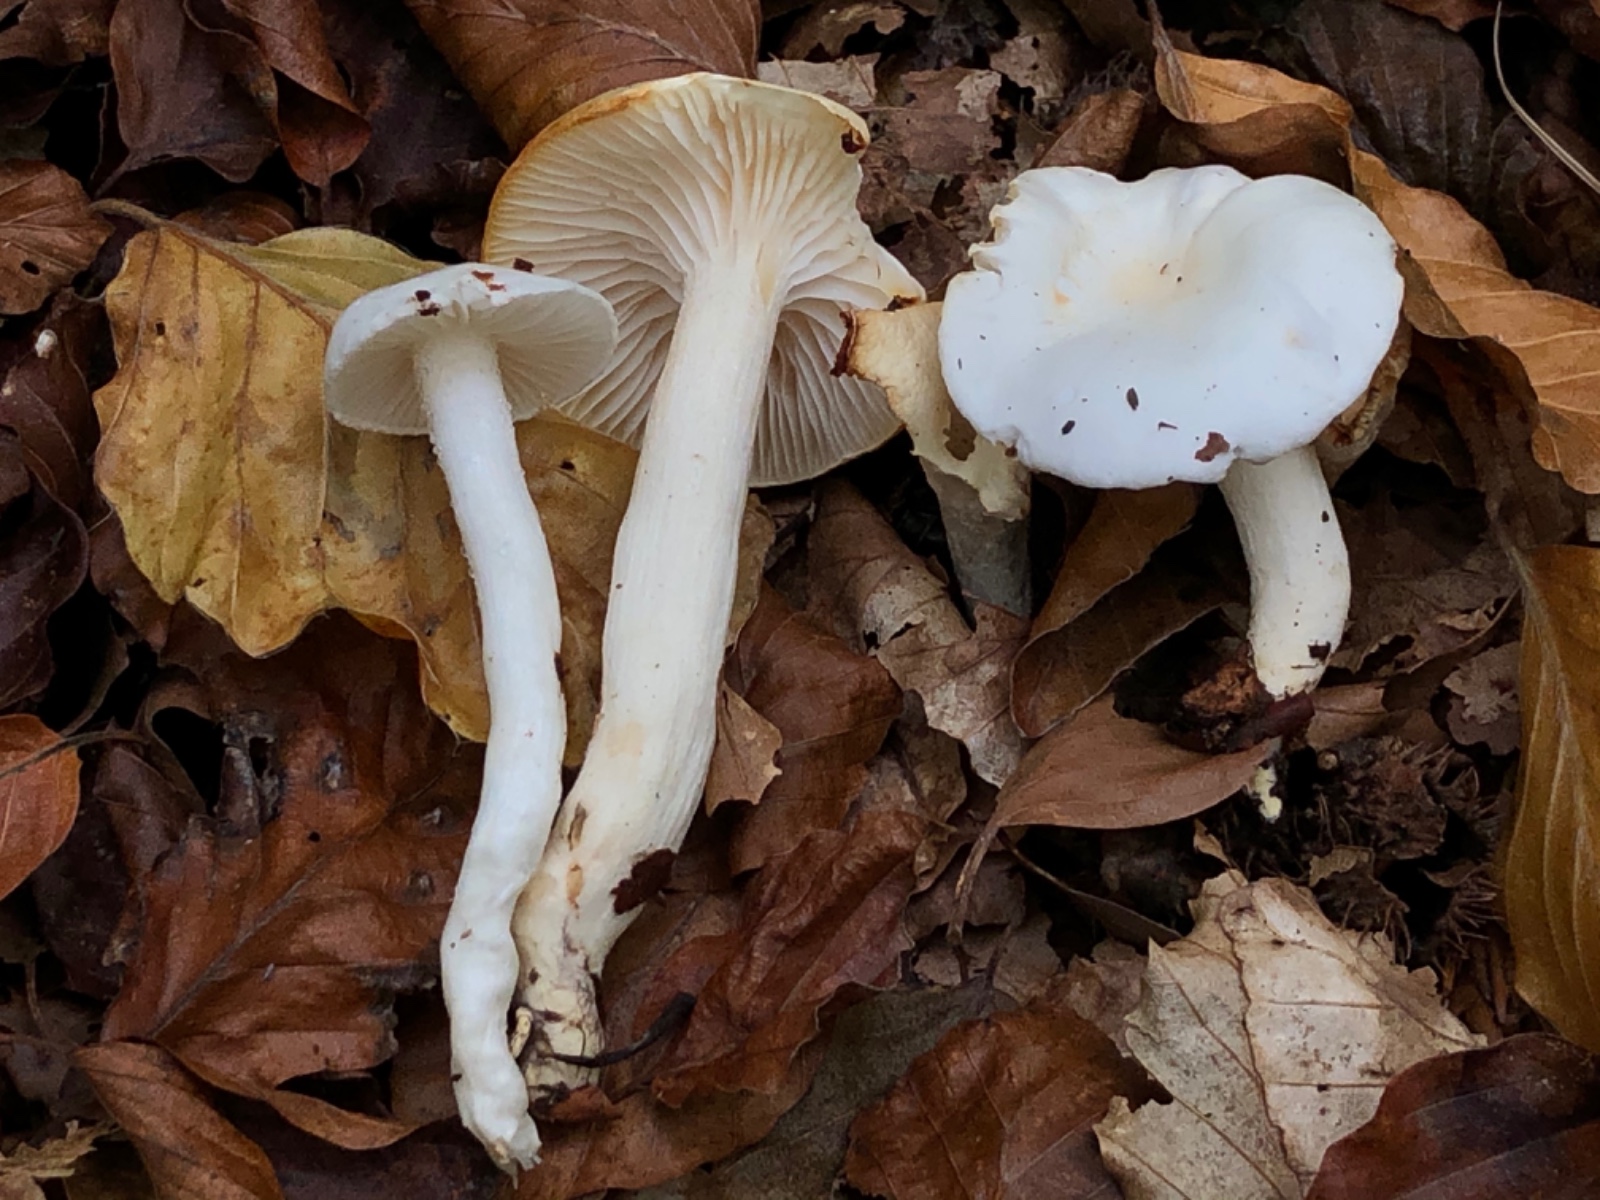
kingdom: Fungi
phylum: Basidiomycota
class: Agaricomycetes
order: Agaricales
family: Hygrophoraceae
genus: Hygrophorus
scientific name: Hygrophorus eburneus
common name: elfenbens-sneglehat
